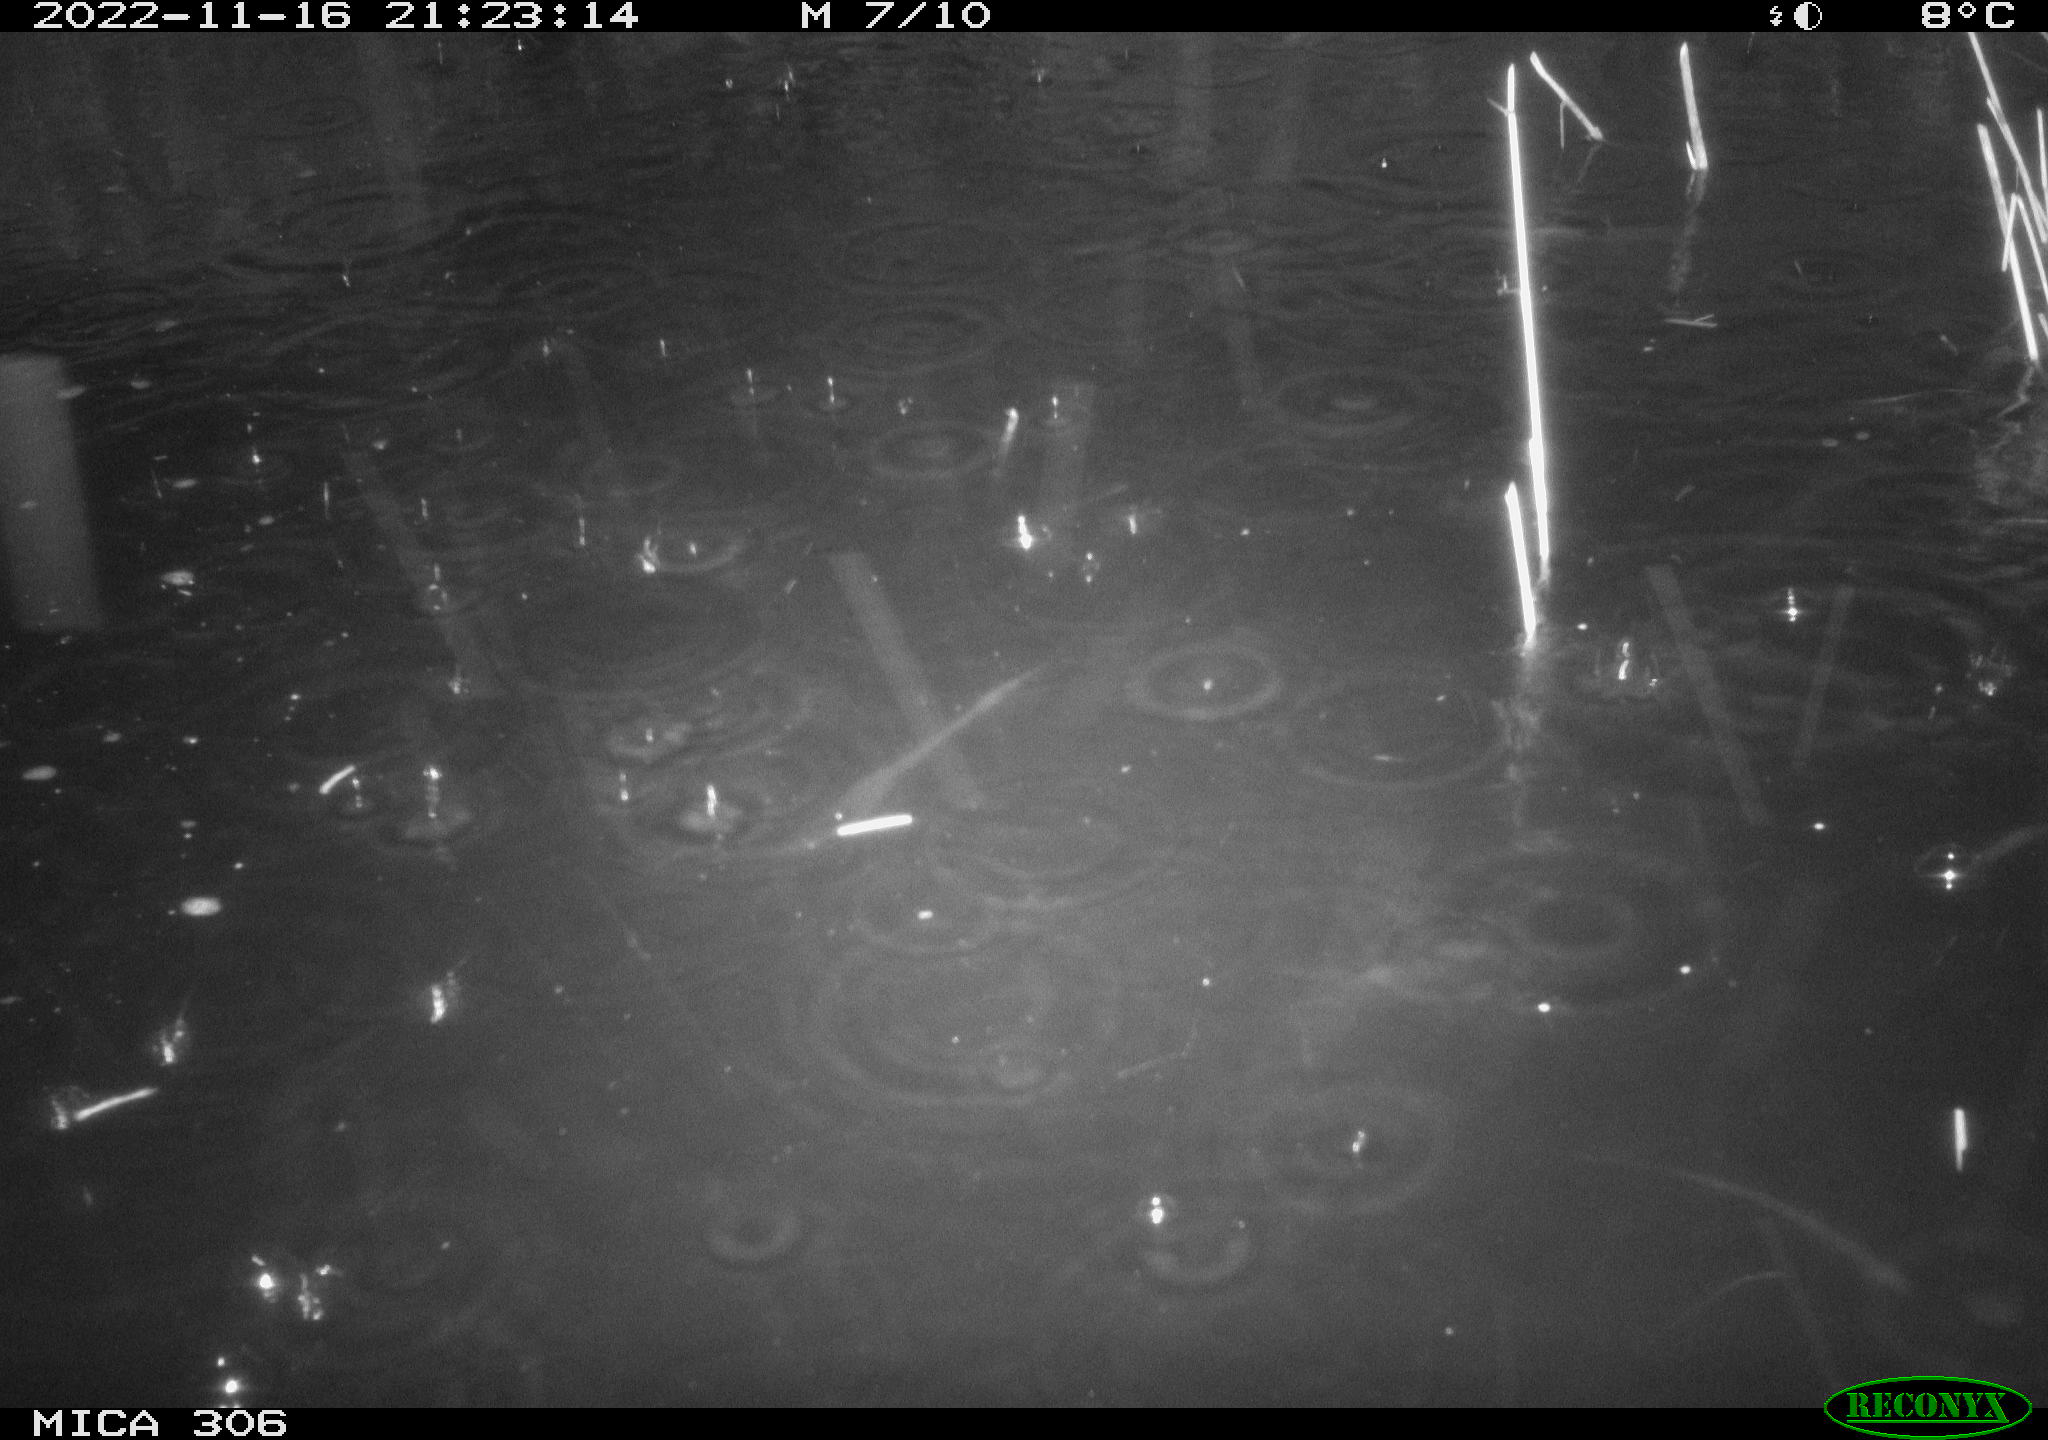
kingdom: Animalia
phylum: Chordata
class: Mammalia
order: Rodentia
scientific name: Rodentia
